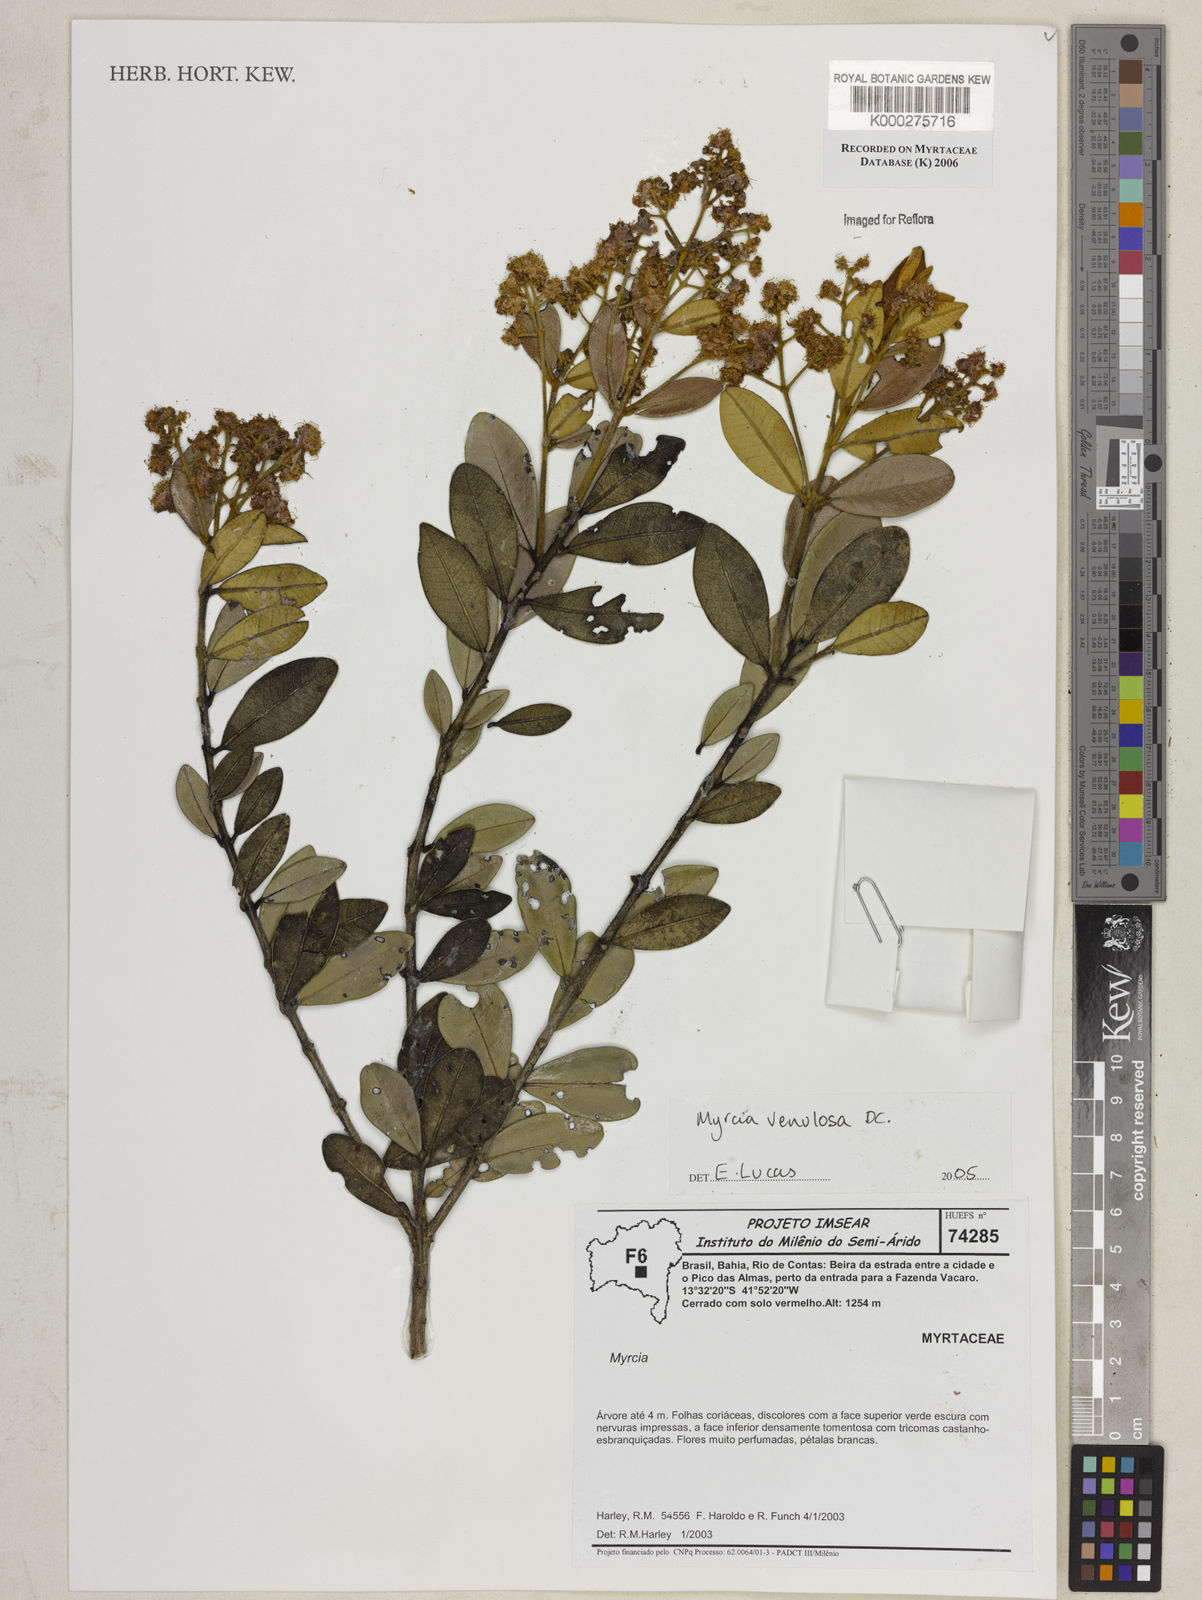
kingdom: Plantae
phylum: Tracheophyta
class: Magnoliopsida
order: Myrtales
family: Myrtaceae
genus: Myrcia
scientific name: Myrcia venulosa
